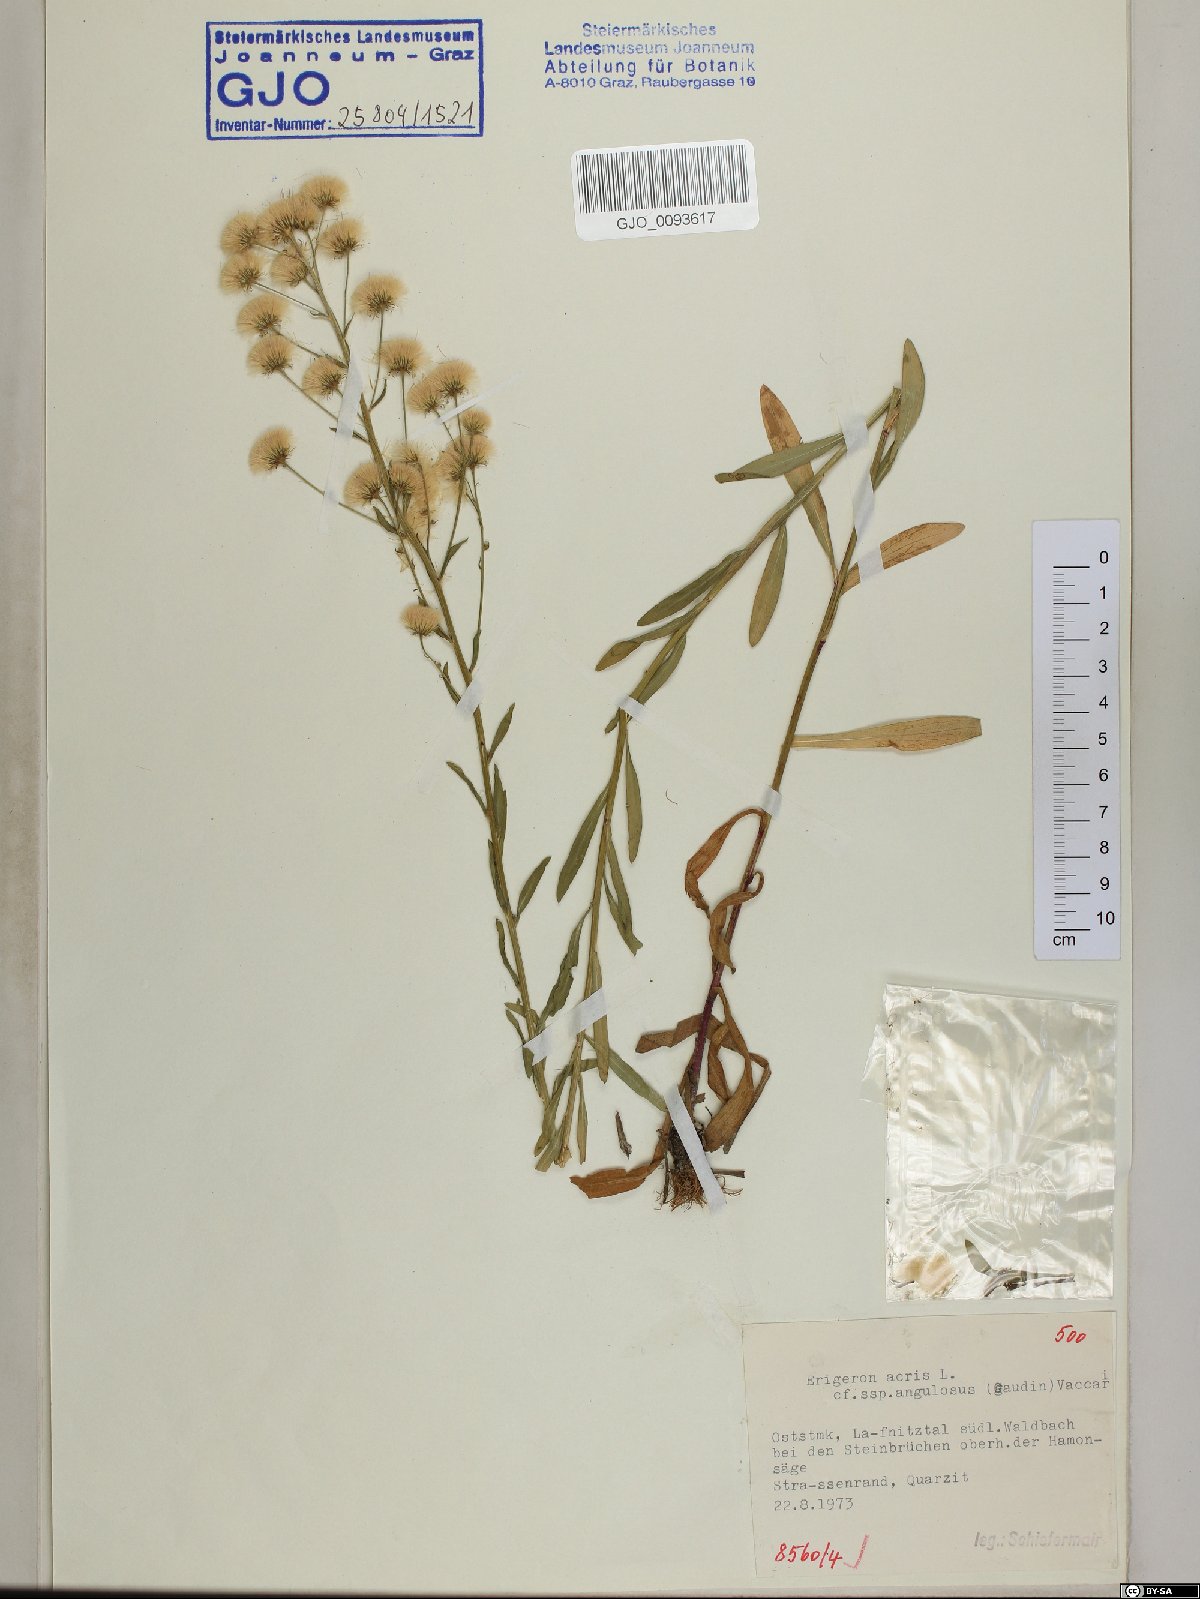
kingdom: Plantae
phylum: Tracheophyta
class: Magnoliopsida
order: Asterales
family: Asteraceae
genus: Erigeron
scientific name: Erigeron angulosus
